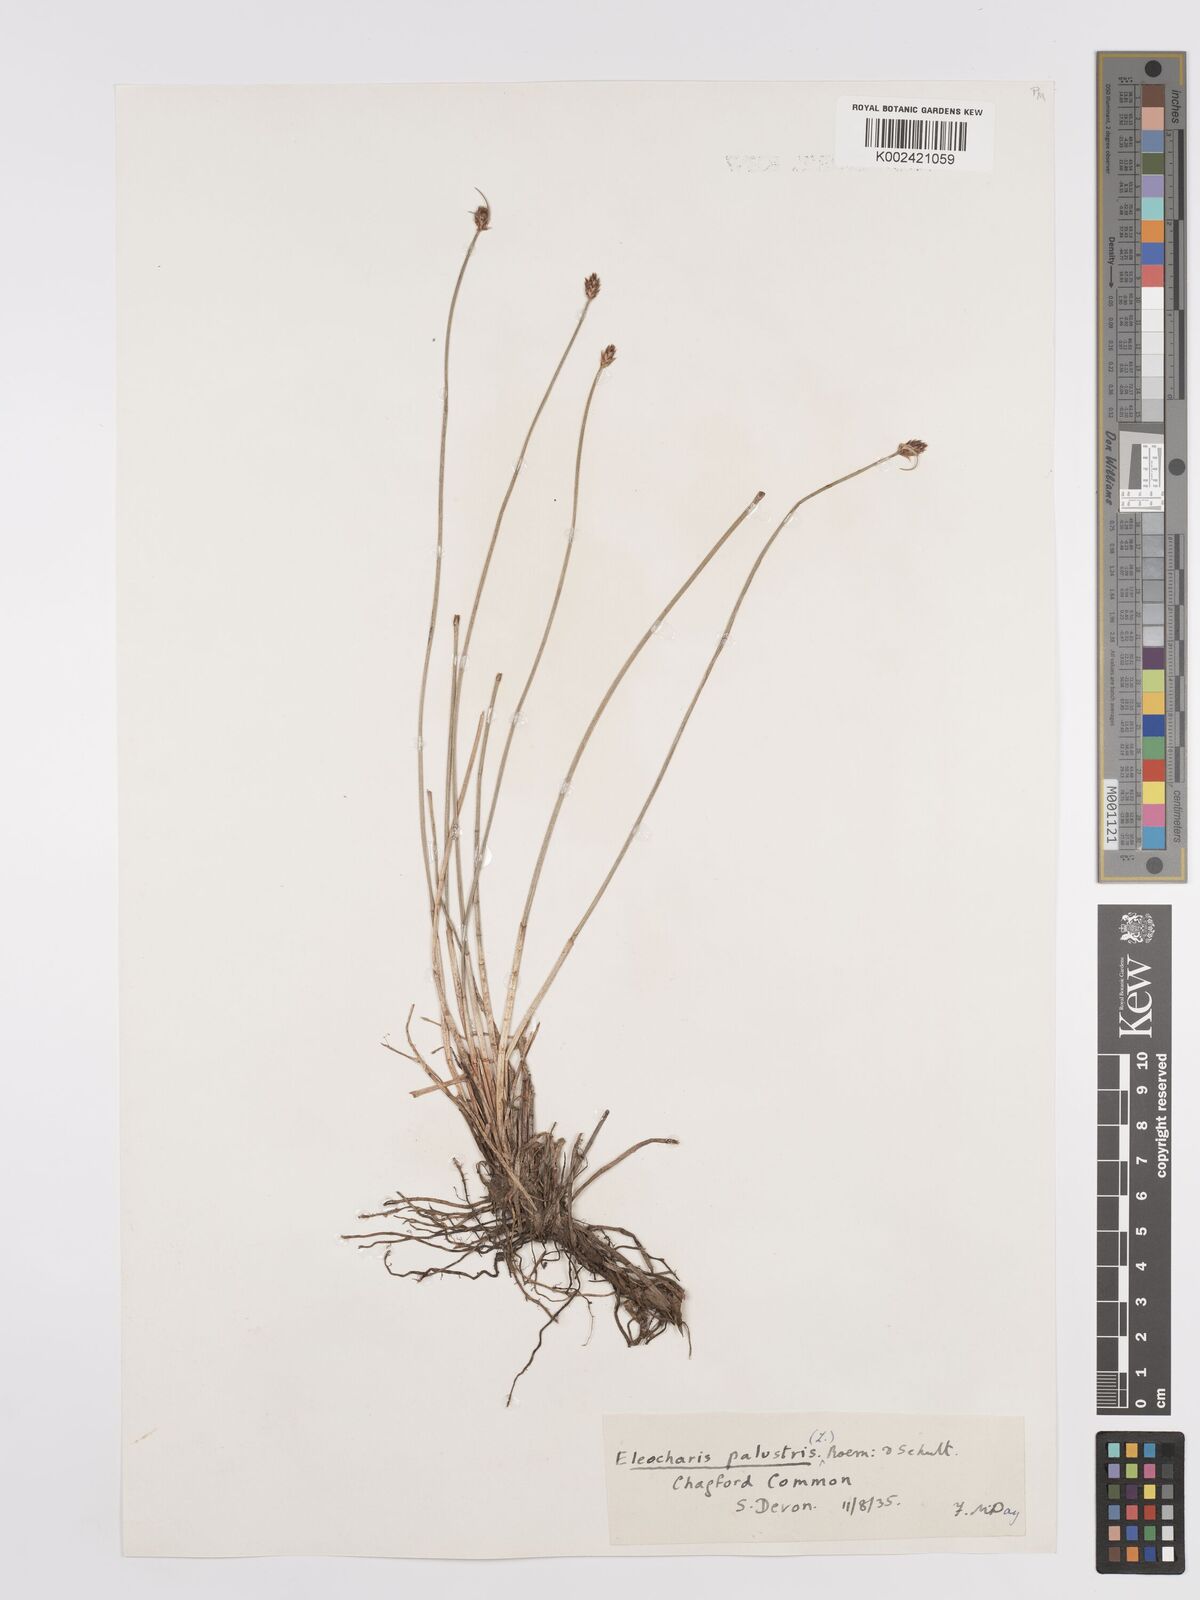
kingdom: Plantae
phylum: Tracheophyta
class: Liliopsida
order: Poales
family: Cyperaceae
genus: Eleocharis
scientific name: Eleocharis palustris
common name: Common spike-rush
